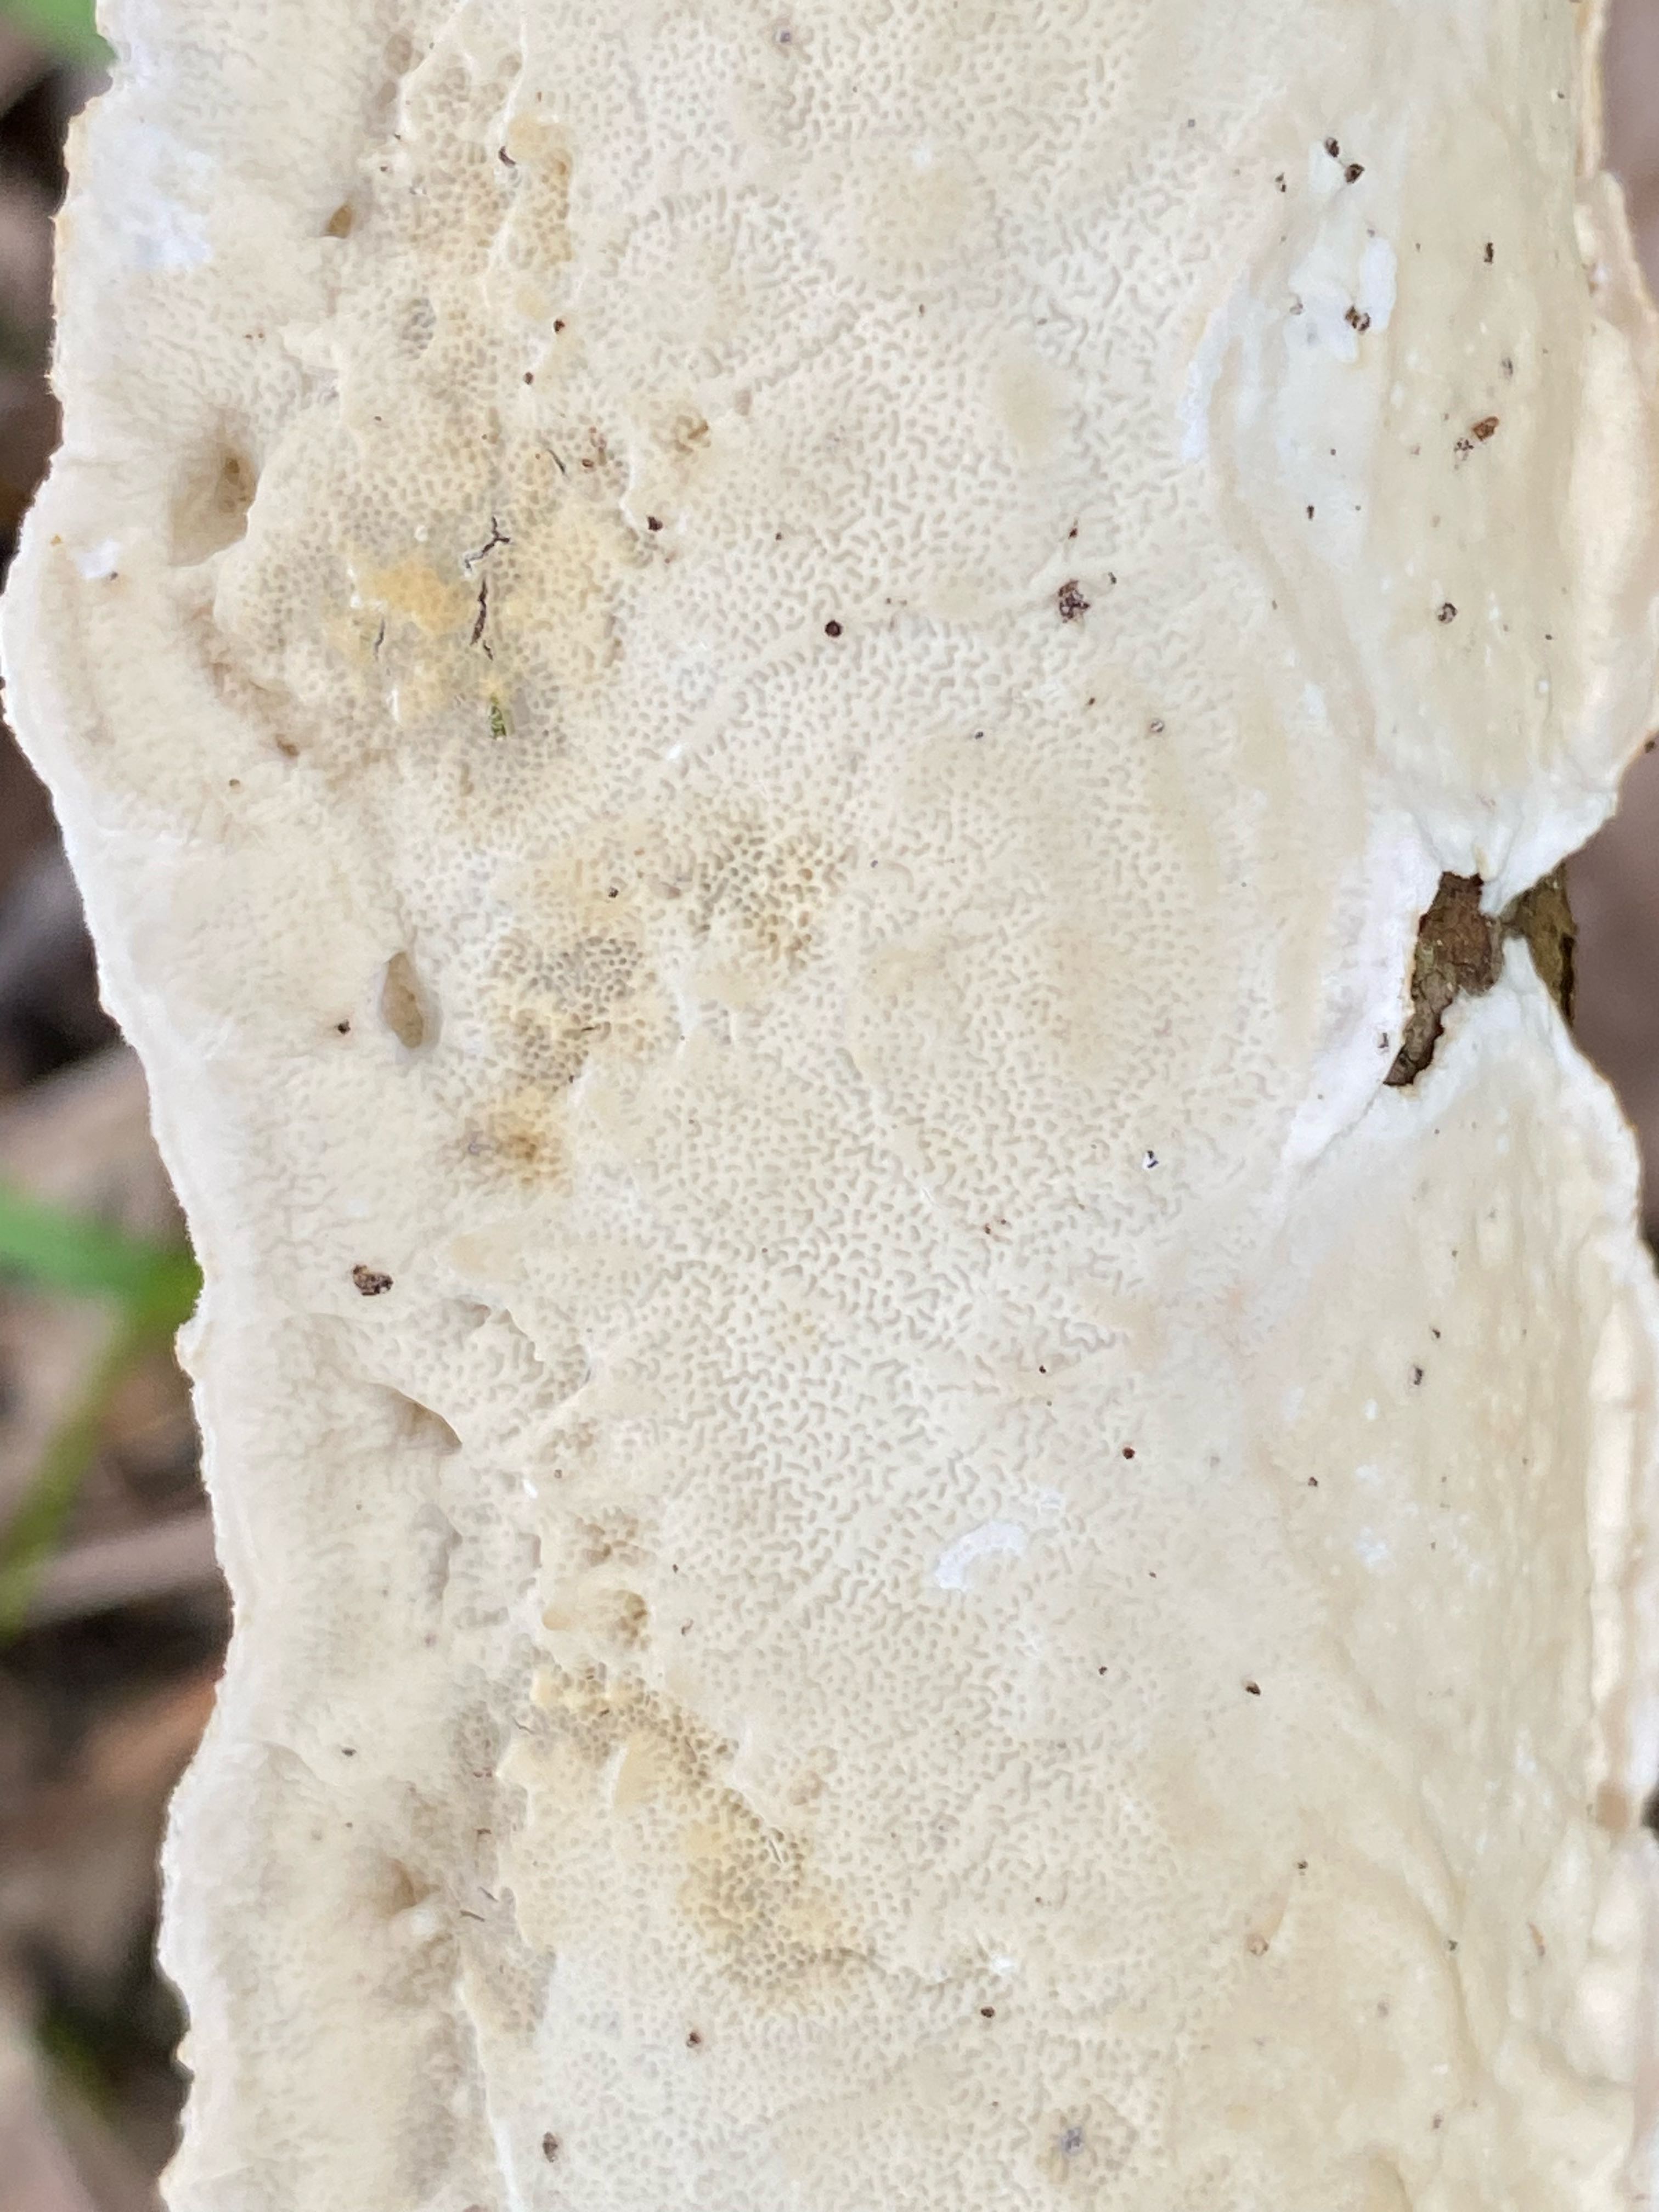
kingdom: Fungi
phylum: Basidiomycota
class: Agaricomycetes
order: Polyporales
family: Irpicaceae
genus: Byssomerulius
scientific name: Byssomerulius corium
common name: læder-åresvamp
